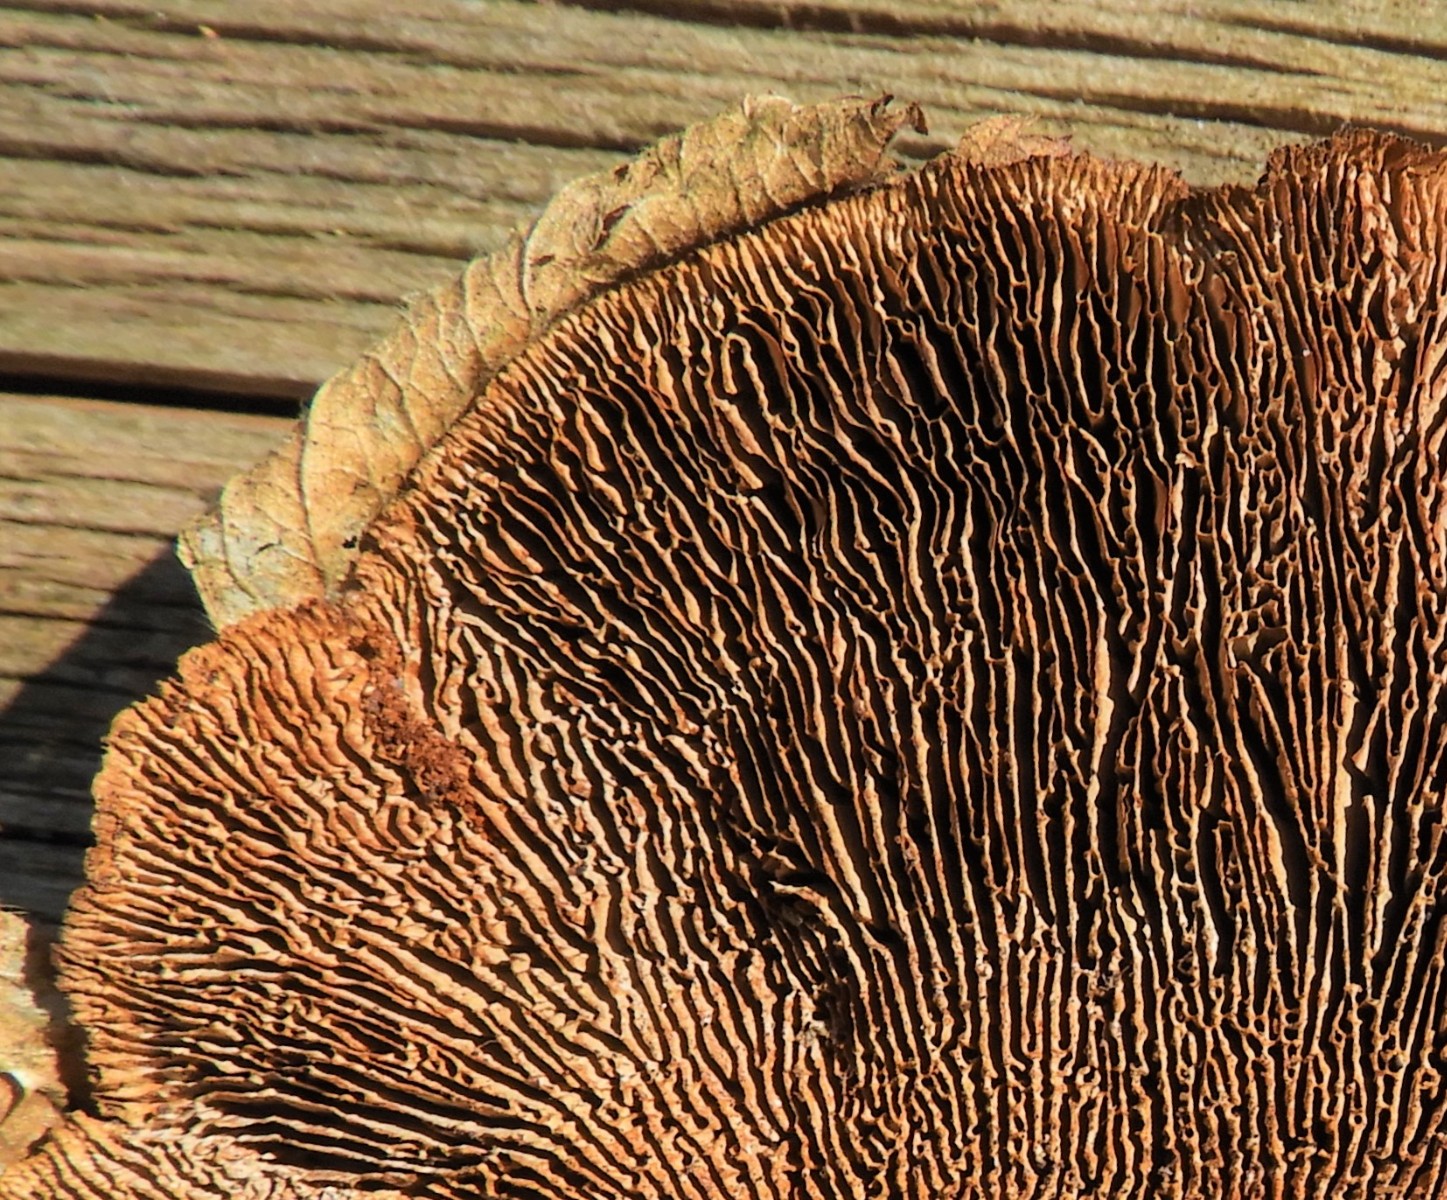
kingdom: Fungi
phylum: Basidiomycota
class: Agaricomycetes
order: Gloeophyllales
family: Gloeophyllaceae
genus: Gloeophyllum
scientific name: Gloeophyllum sepiarium
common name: fyrre-korkhat
